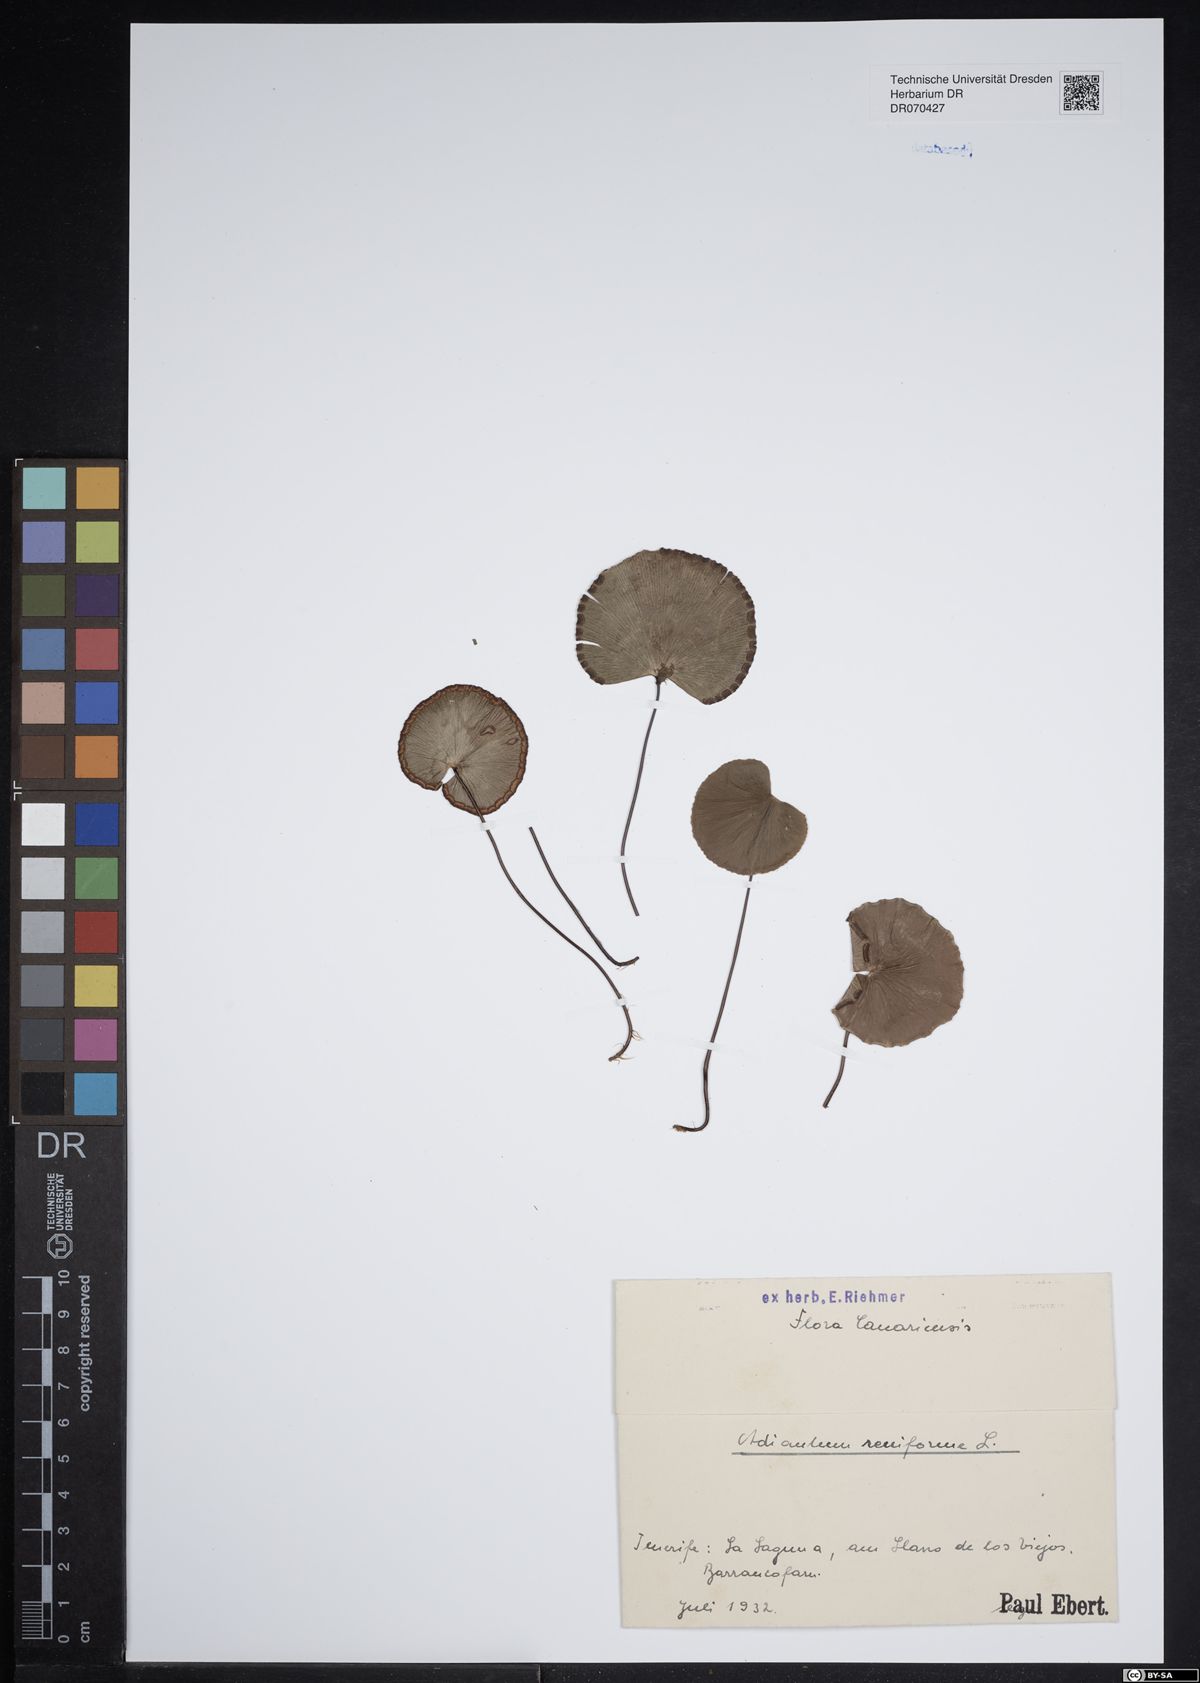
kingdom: Plantae
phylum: Tracheophyta
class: Polypodiopsida
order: Polypodiales
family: Pteridaceae
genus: Adiantum
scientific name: Adiantum reniforme
